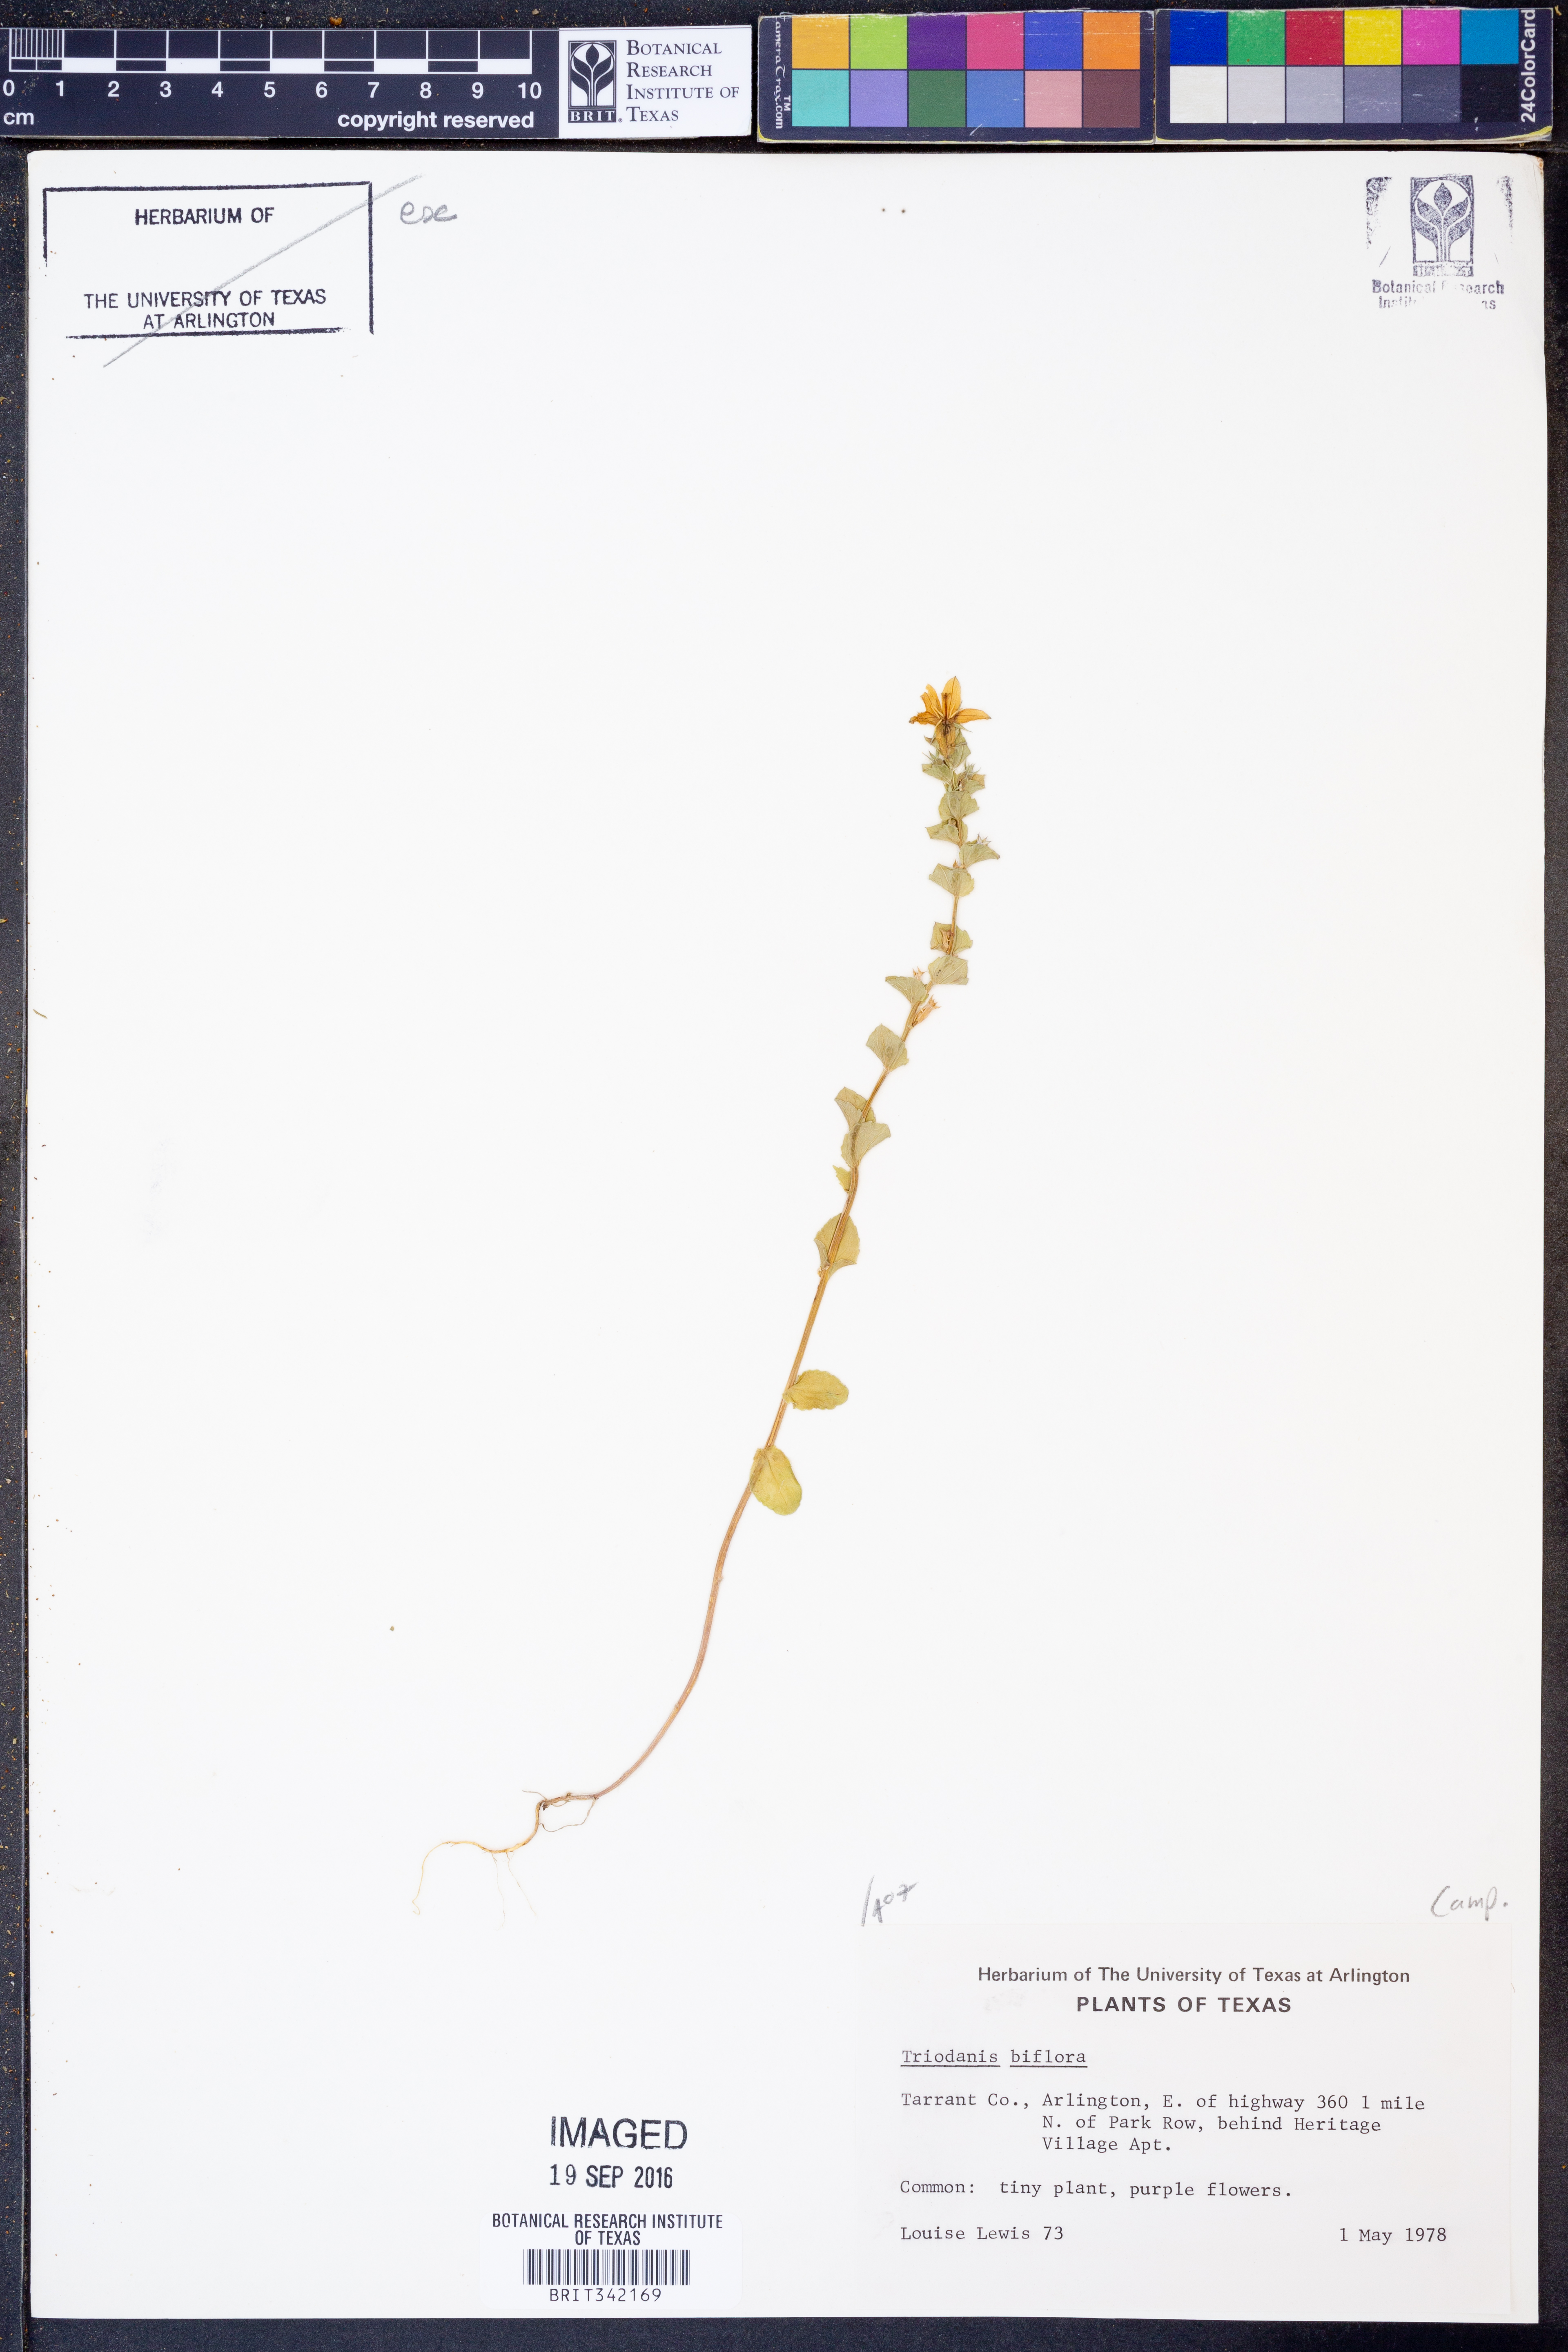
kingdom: Plantae
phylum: Tracheophyta
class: Magnoliopsida
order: Asterales
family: Campanulaceae
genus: Triodanis
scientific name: Triodanis perfoliata
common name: Clasping venus' looking-glass
